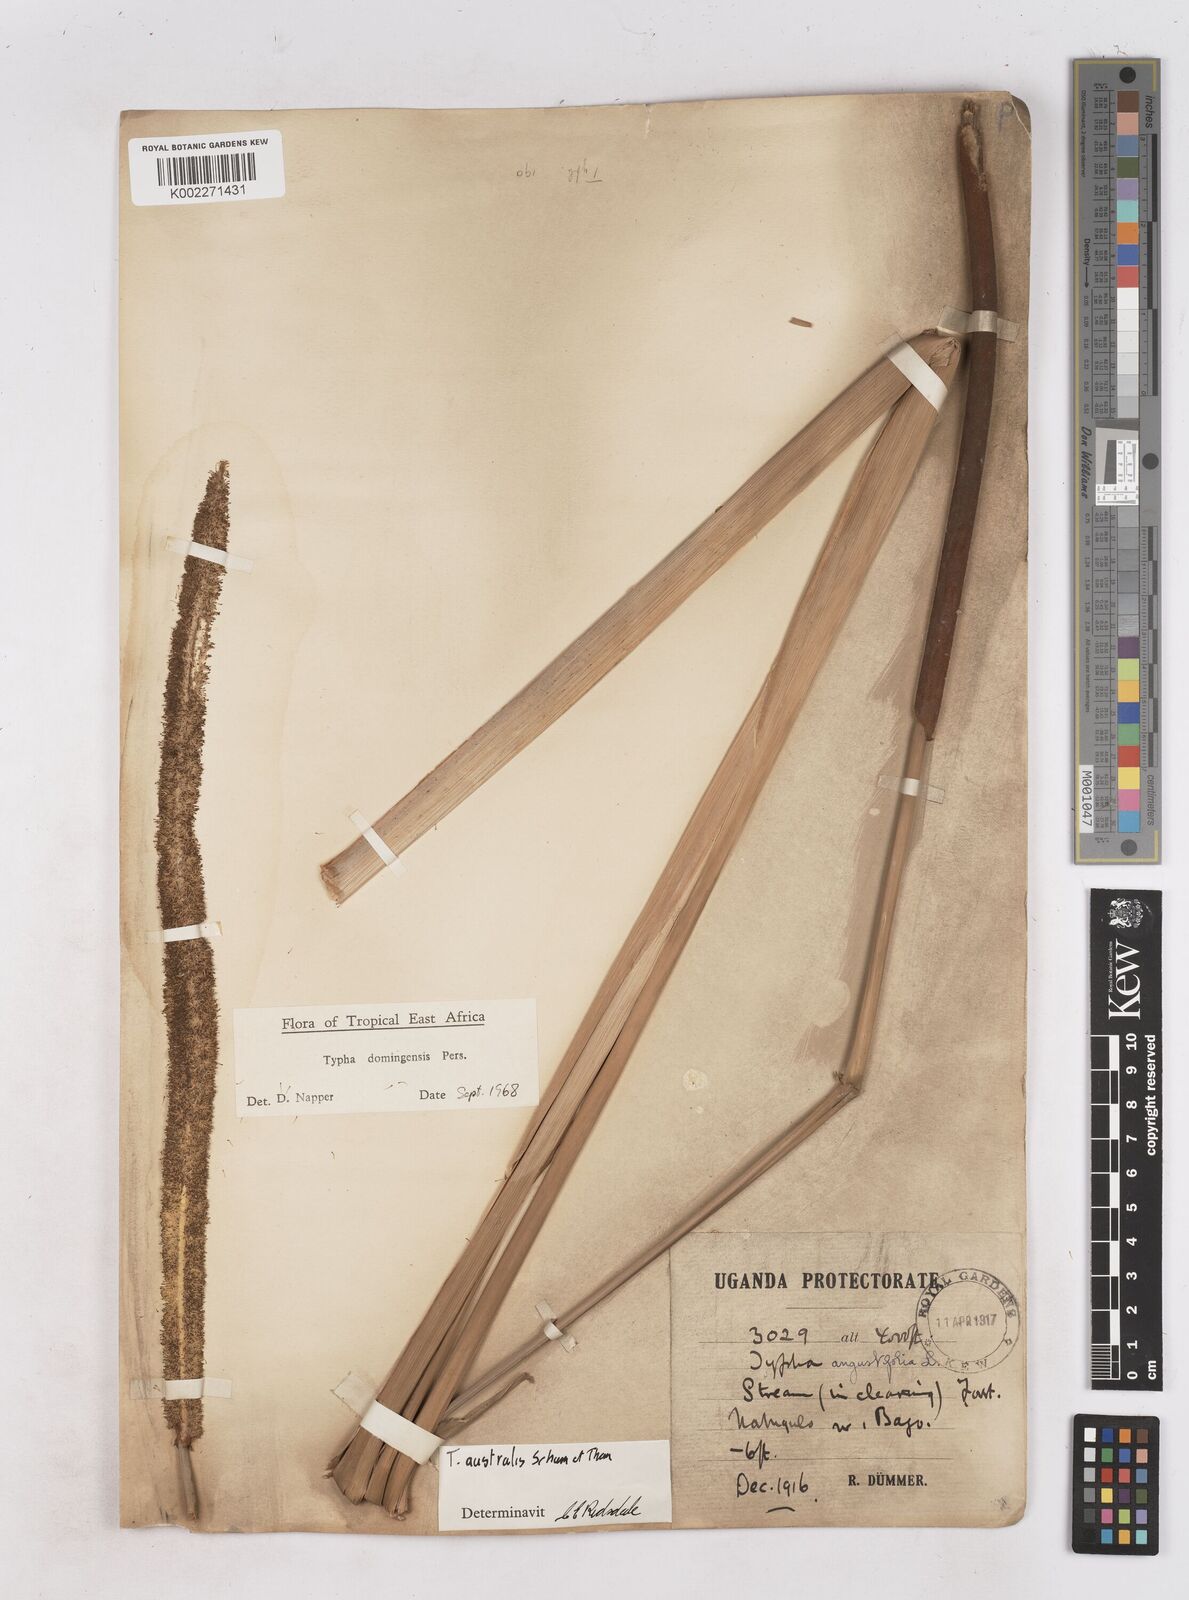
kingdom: Plantae
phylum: Tracheophyta
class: Liliopsida
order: Poales
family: Typhaceae
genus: Typha
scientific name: Typha domingensis
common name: Southern cattail
